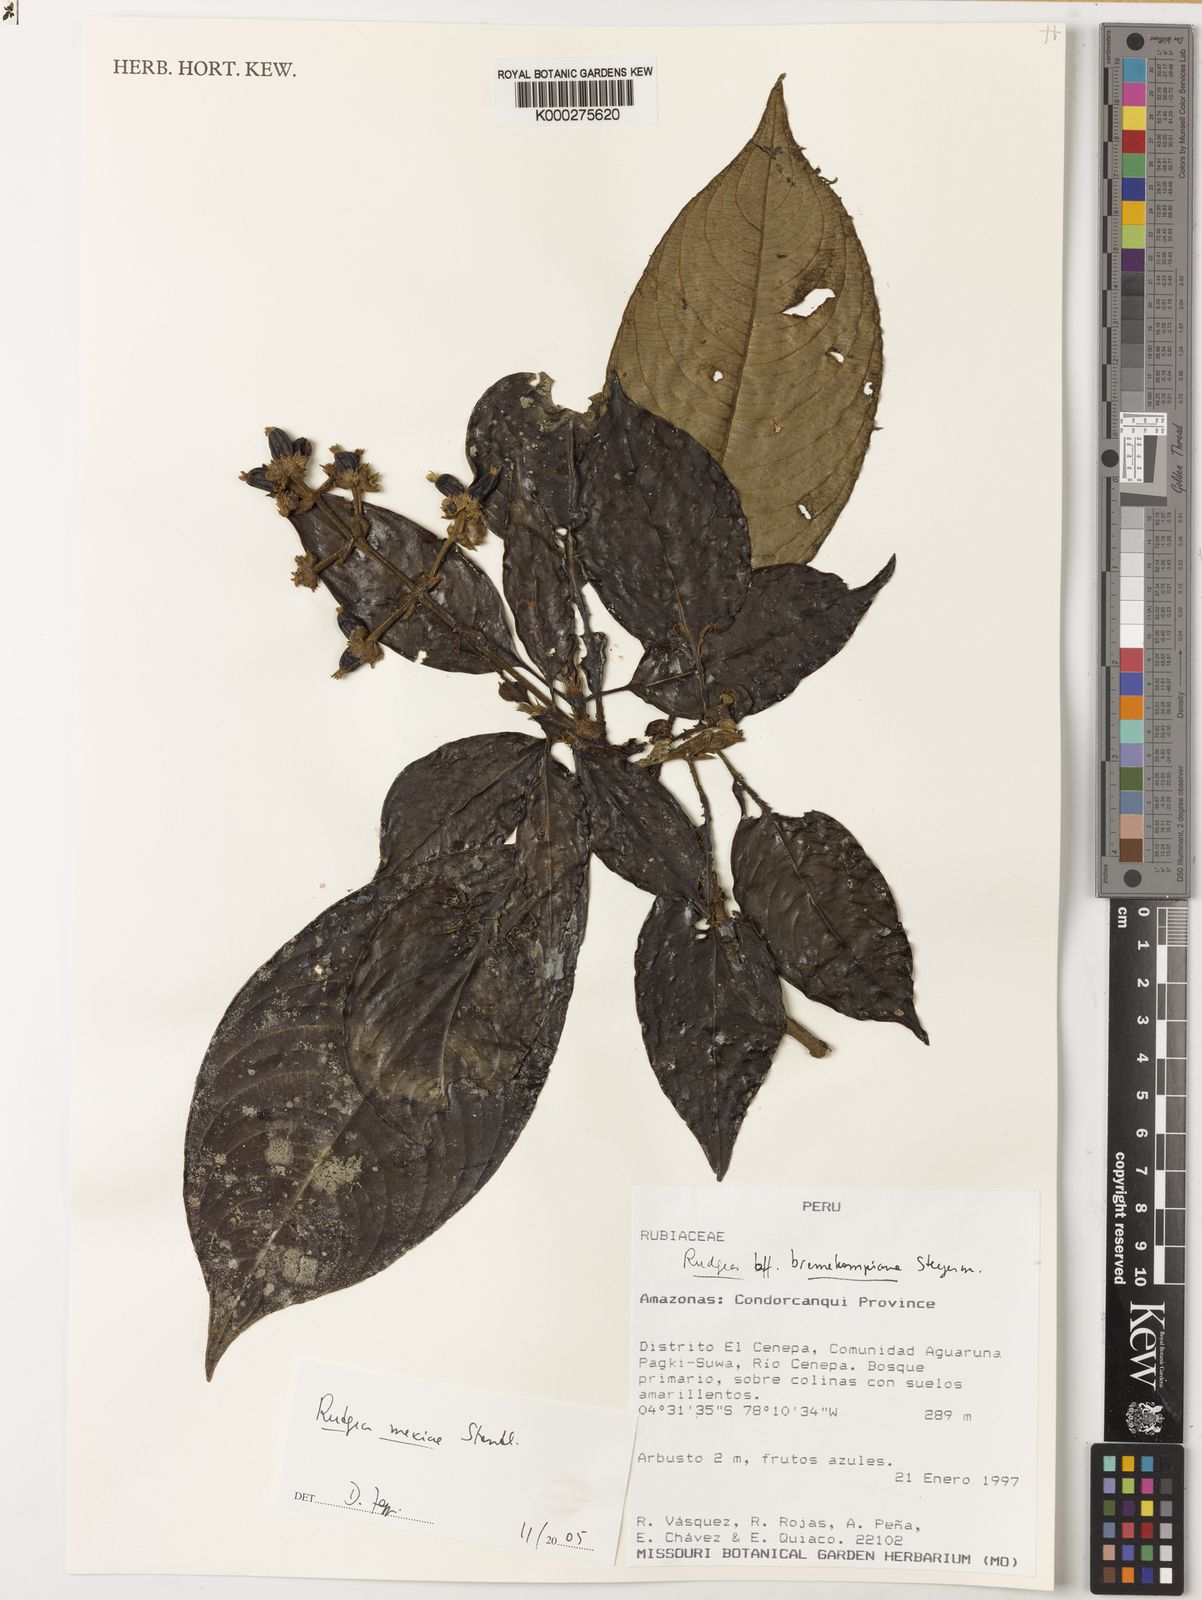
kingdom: Plantae
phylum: Tracheophyta
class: Magnoliopsida
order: Gentianales
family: Rubiaceae
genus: Palicourea
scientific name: Palicourea yneziae
